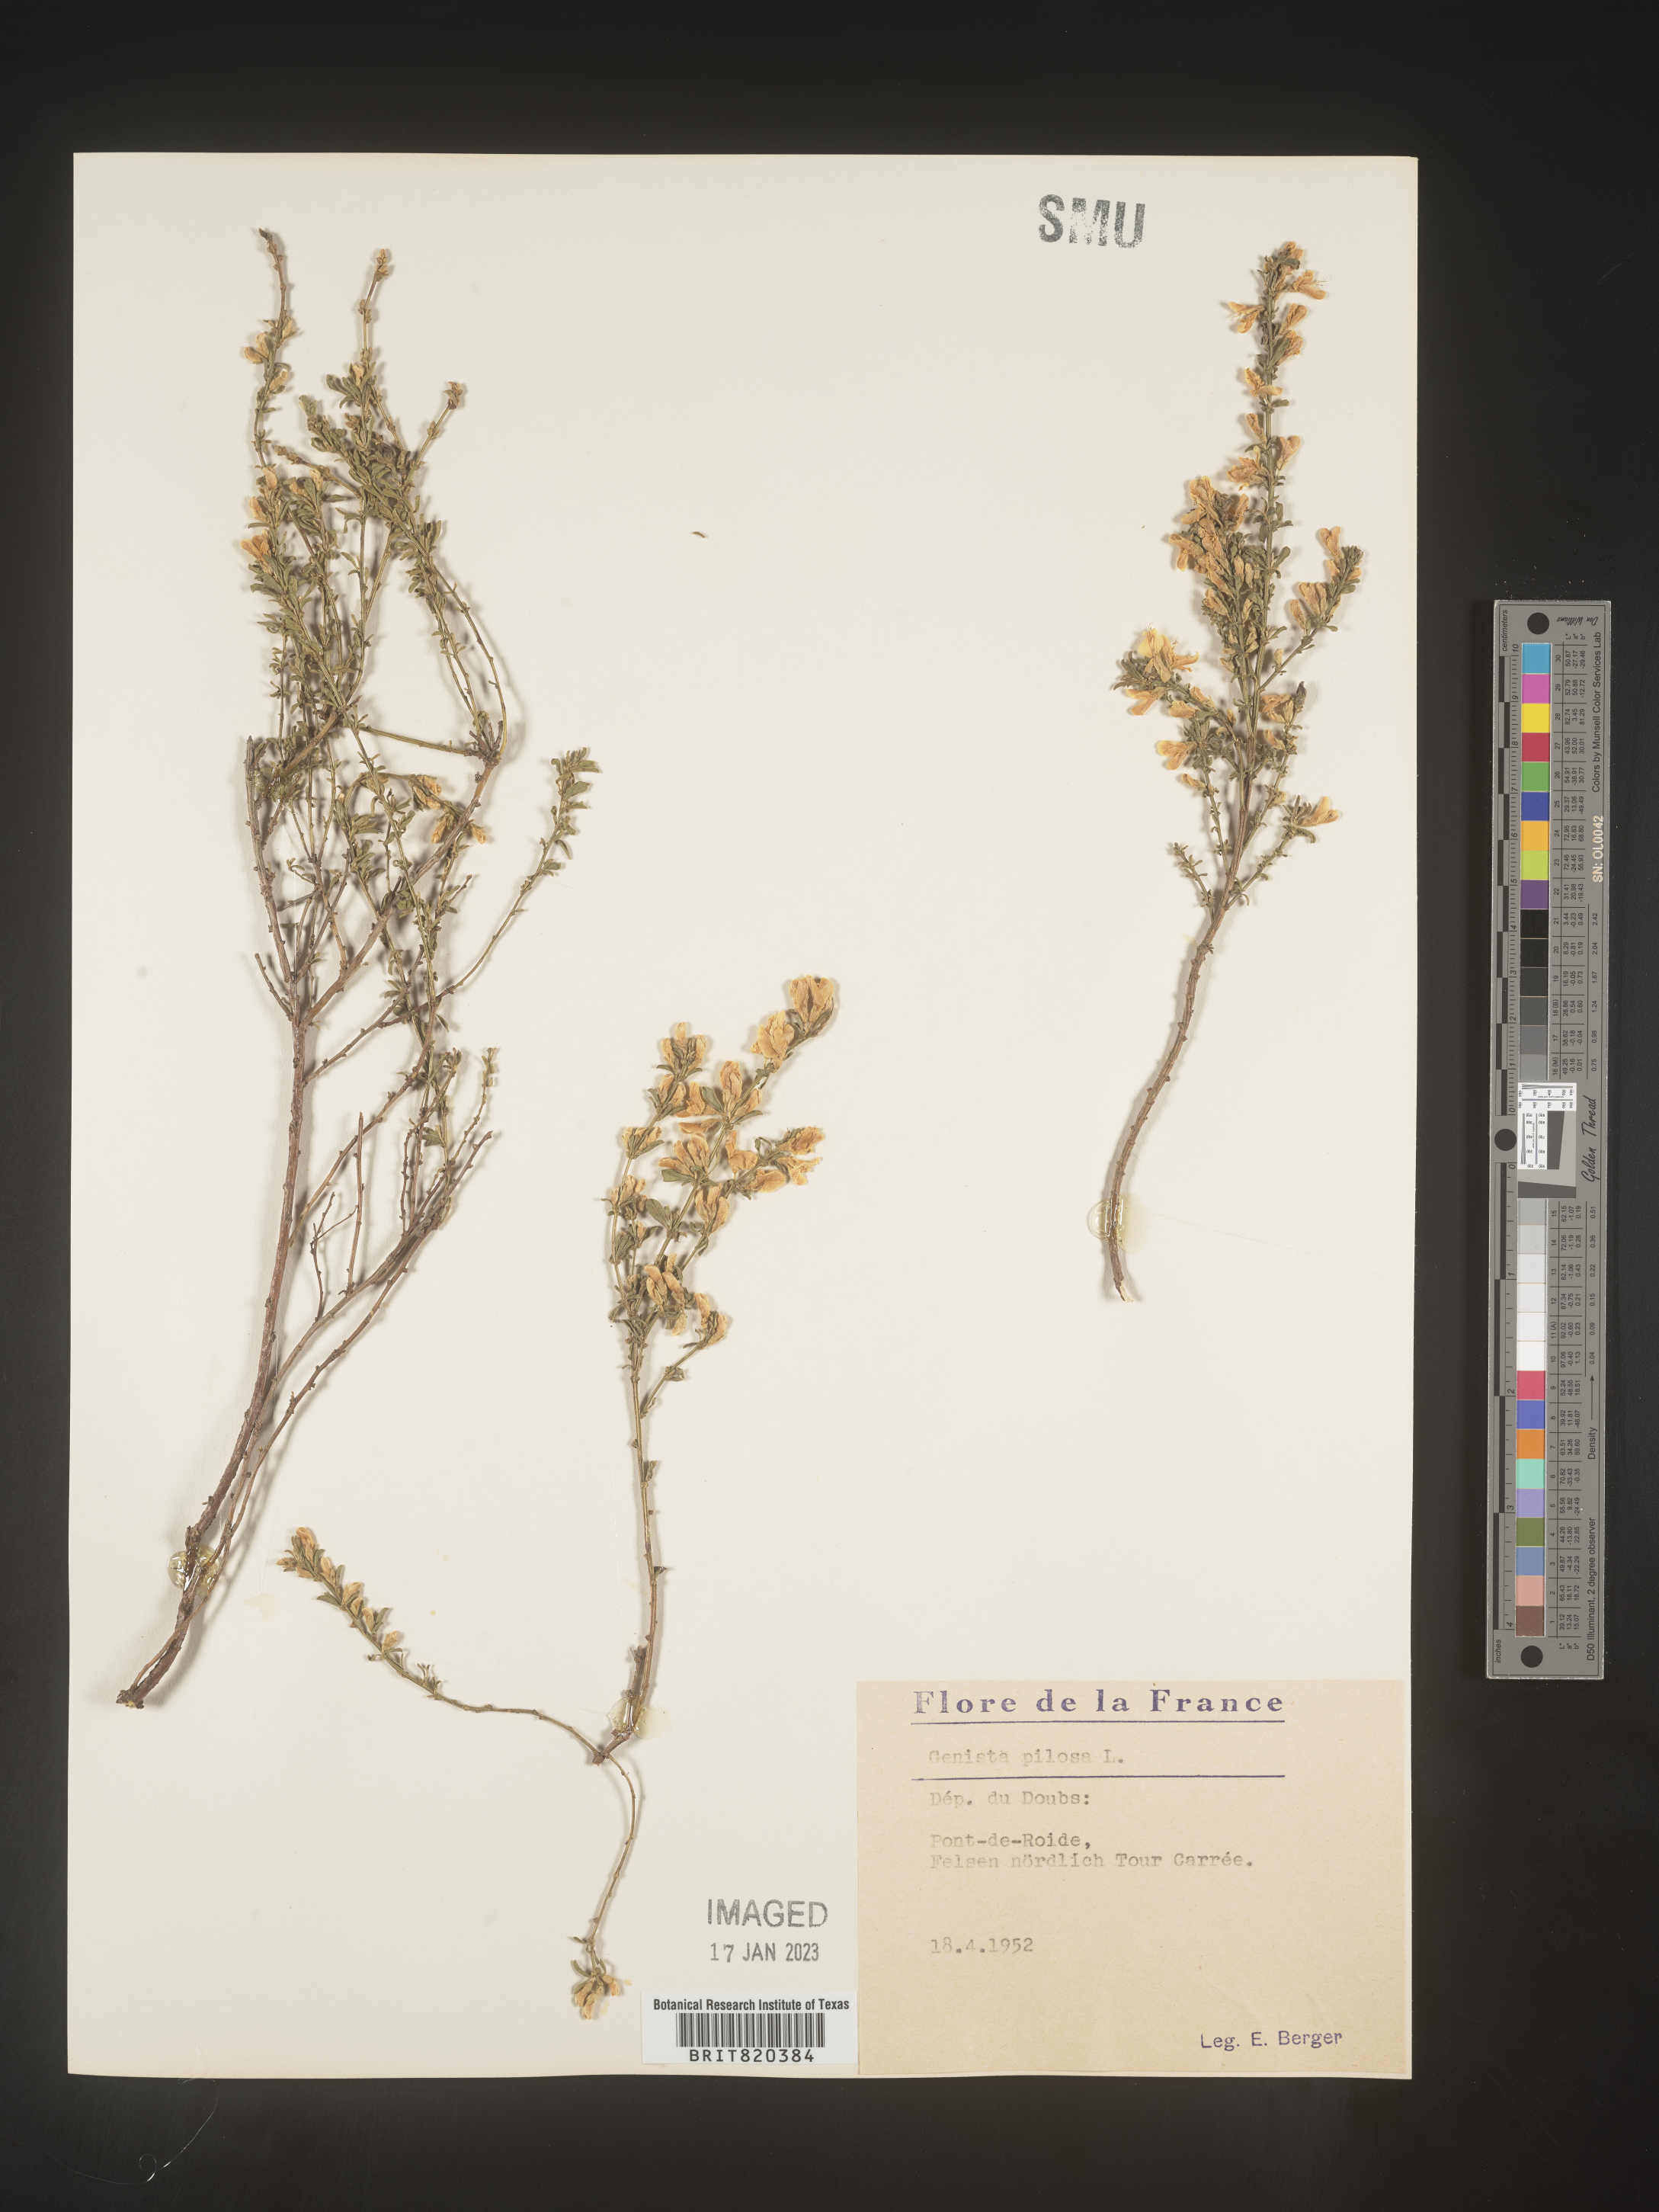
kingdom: Plantae
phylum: Tracheophyta
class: Magnoliopsida
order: Fabales
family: Fabaceae
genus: Genista
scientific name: Genista
